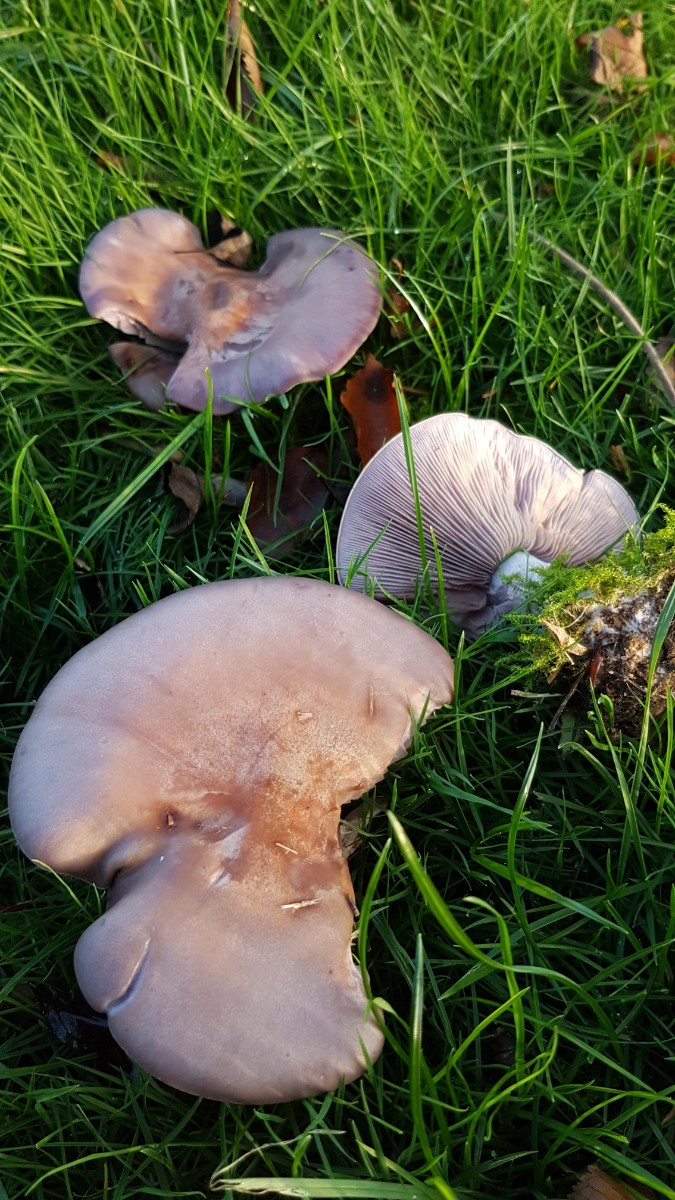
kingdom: Fungi
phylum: Basidiomycota
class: Agaricomycetes
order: Agaricales
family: Tricholomataceae
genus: Lepista
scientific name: Lepista nuda
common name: violet hekseringshat
